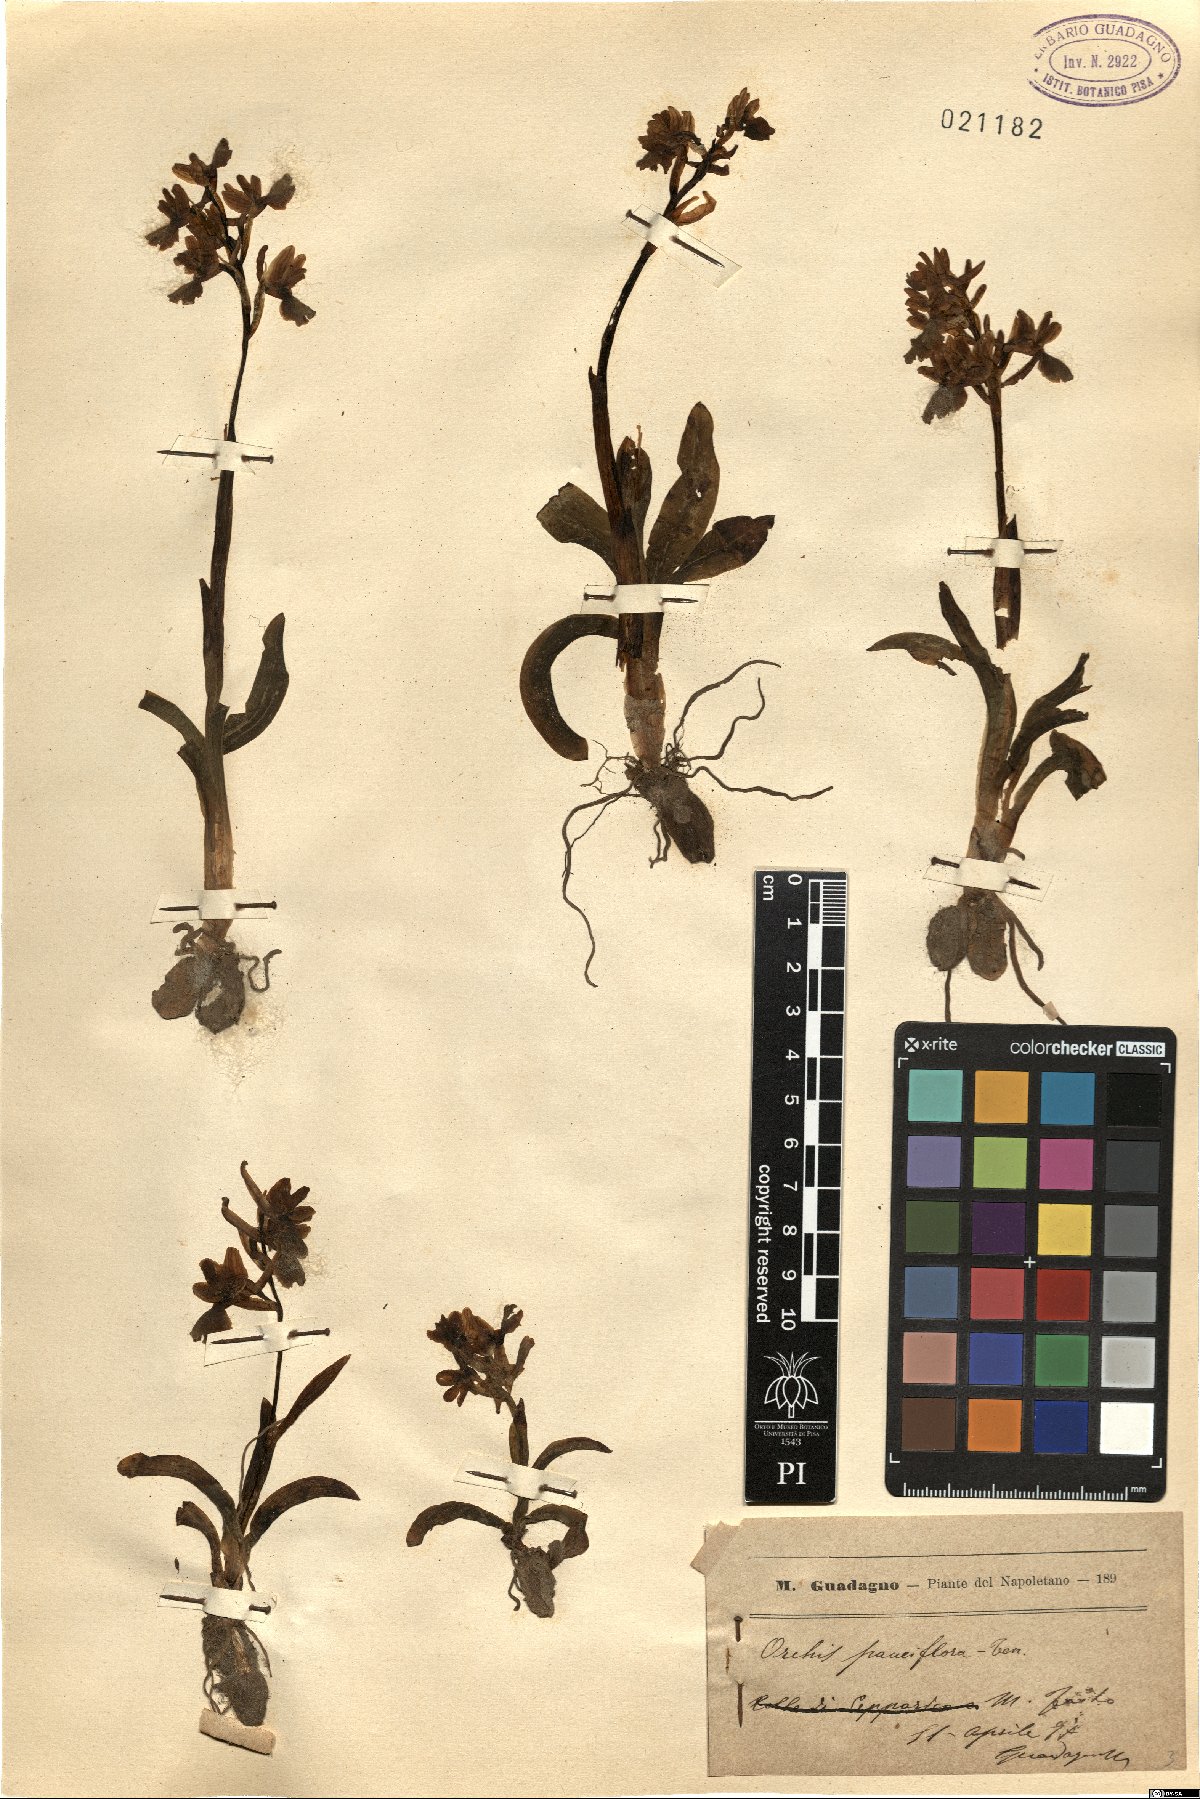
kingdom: Plantae
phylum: Tracheophyta
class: Liliopsida
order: Asparagales
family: Orchidaceae
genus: Orchis
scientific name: Orchis pauciflora
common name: Few-flowered orchid
